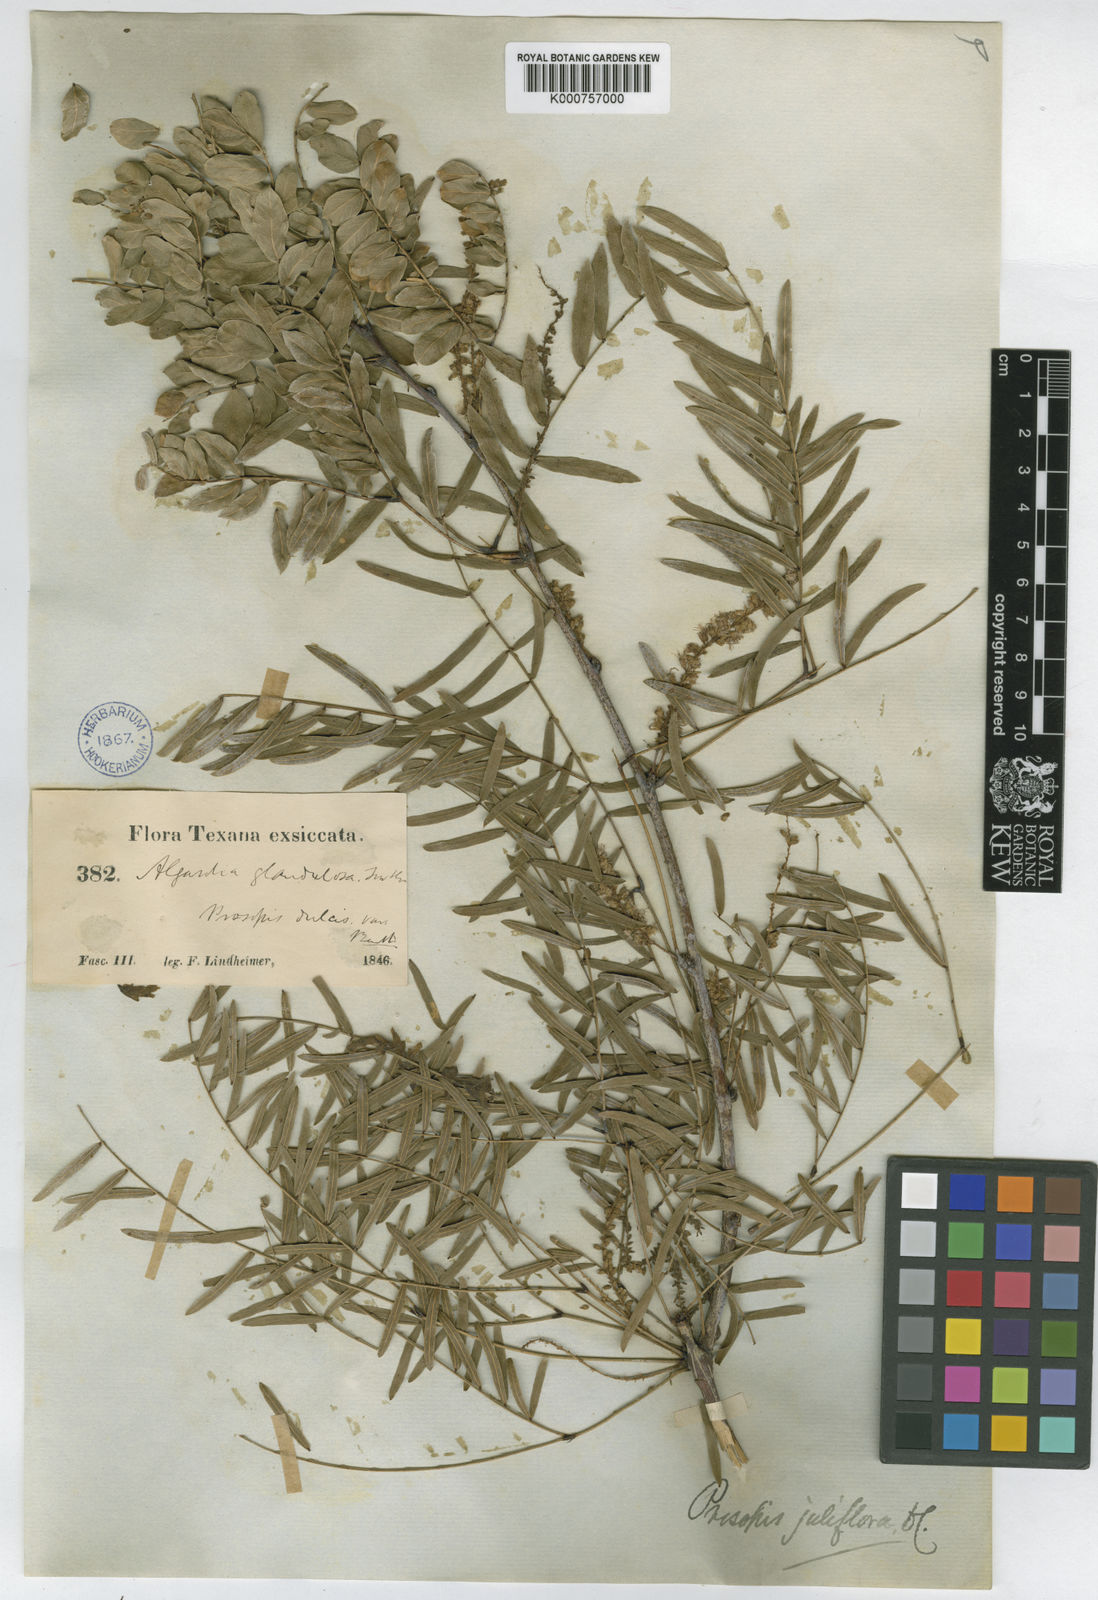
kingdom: Plantae
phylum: Tracheophyta
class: Magnoliopsida
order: Fabales
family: Fabaceae
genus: Prosopis
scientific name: Prosopis juliflora
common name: Mesquite
